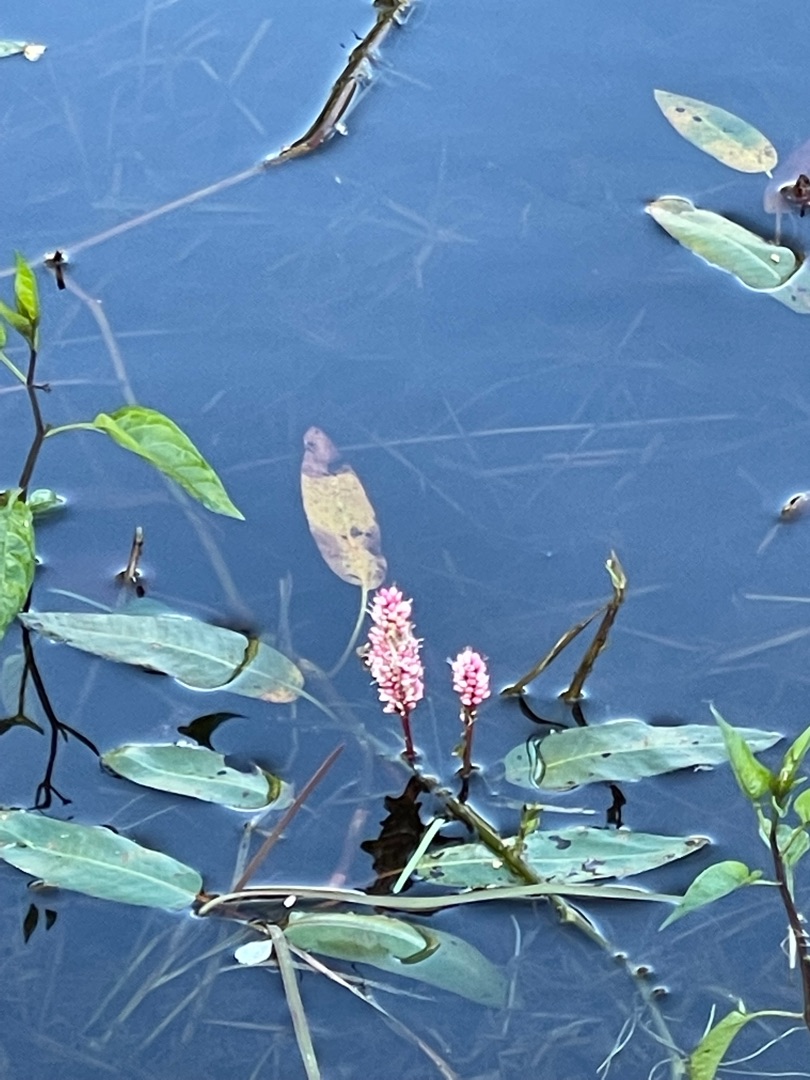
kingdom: Plantae
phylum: Tracheophyta
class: Magnoliopsida
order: Caryophyllales
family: Polygonaceae
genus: Persicaria
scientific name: Persicaria amphibia
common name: Vand-pileurt
